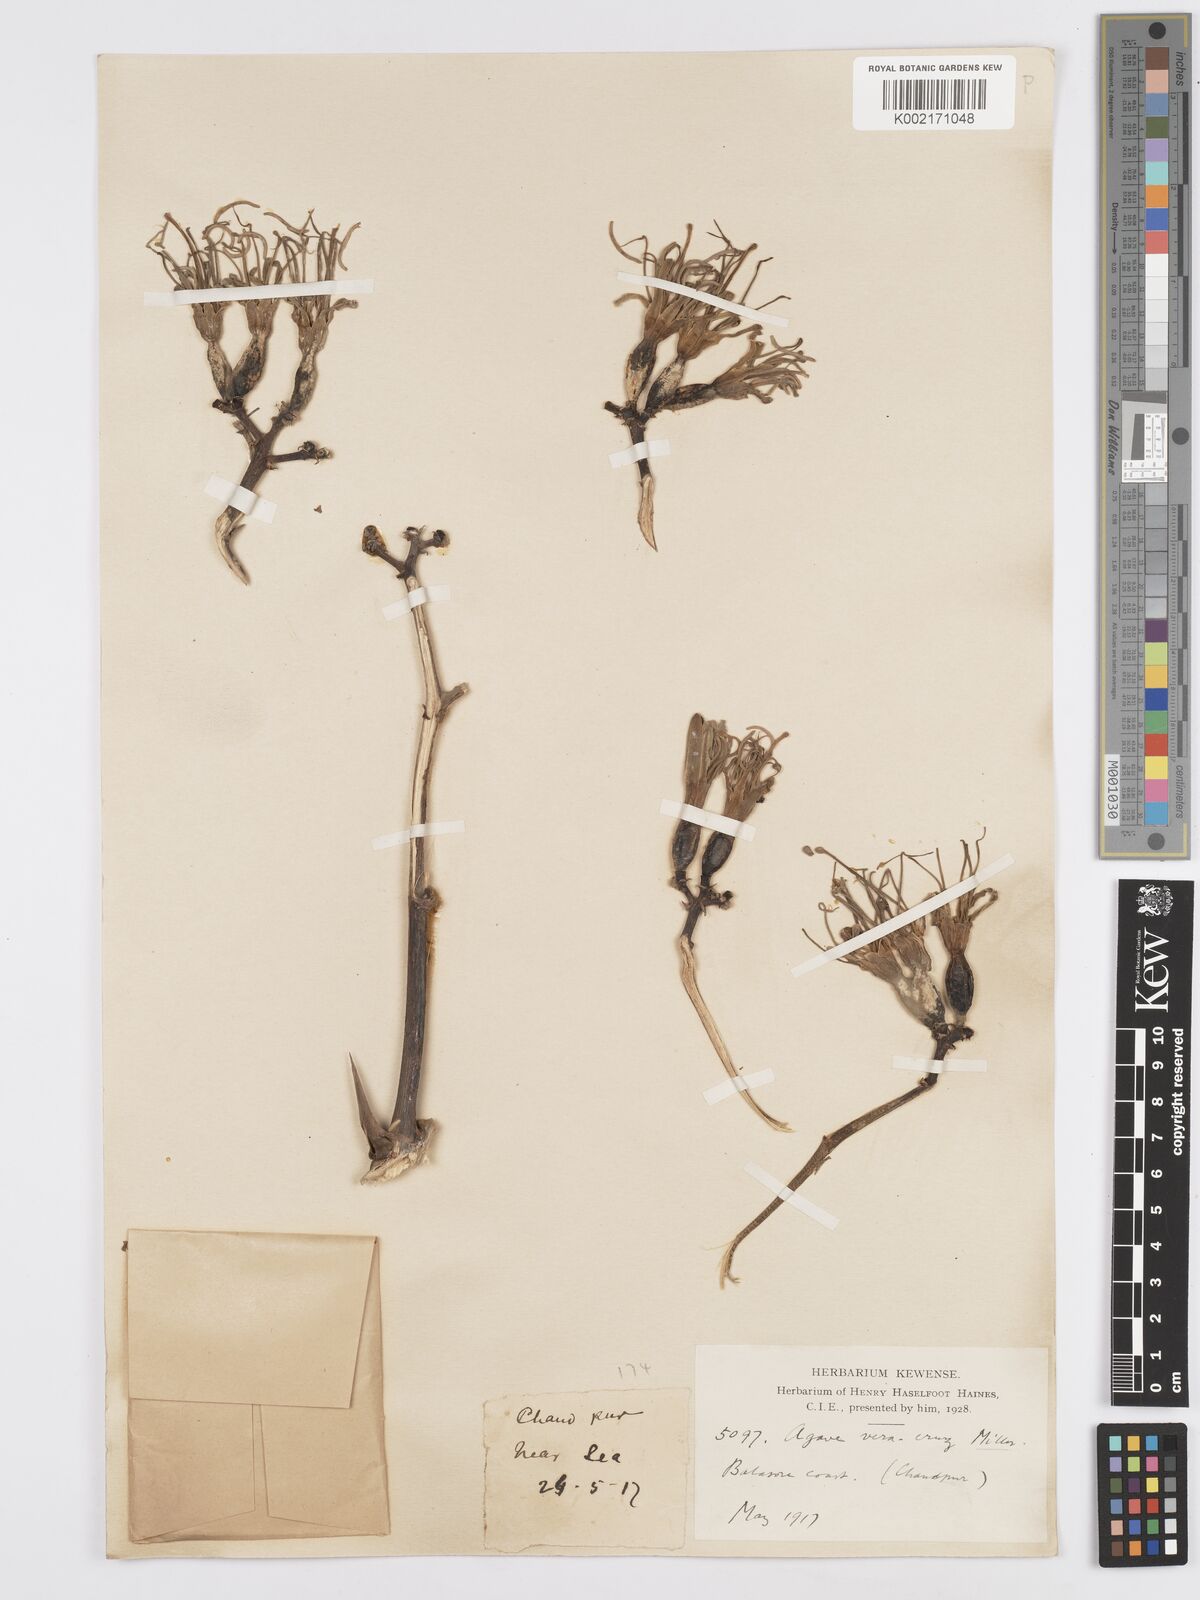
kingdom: Plantae
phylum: Tracheophyta
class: Liliopsida
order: Asparagales
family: Asparagaceae
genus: Agave
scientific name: Agave vera-cruz
